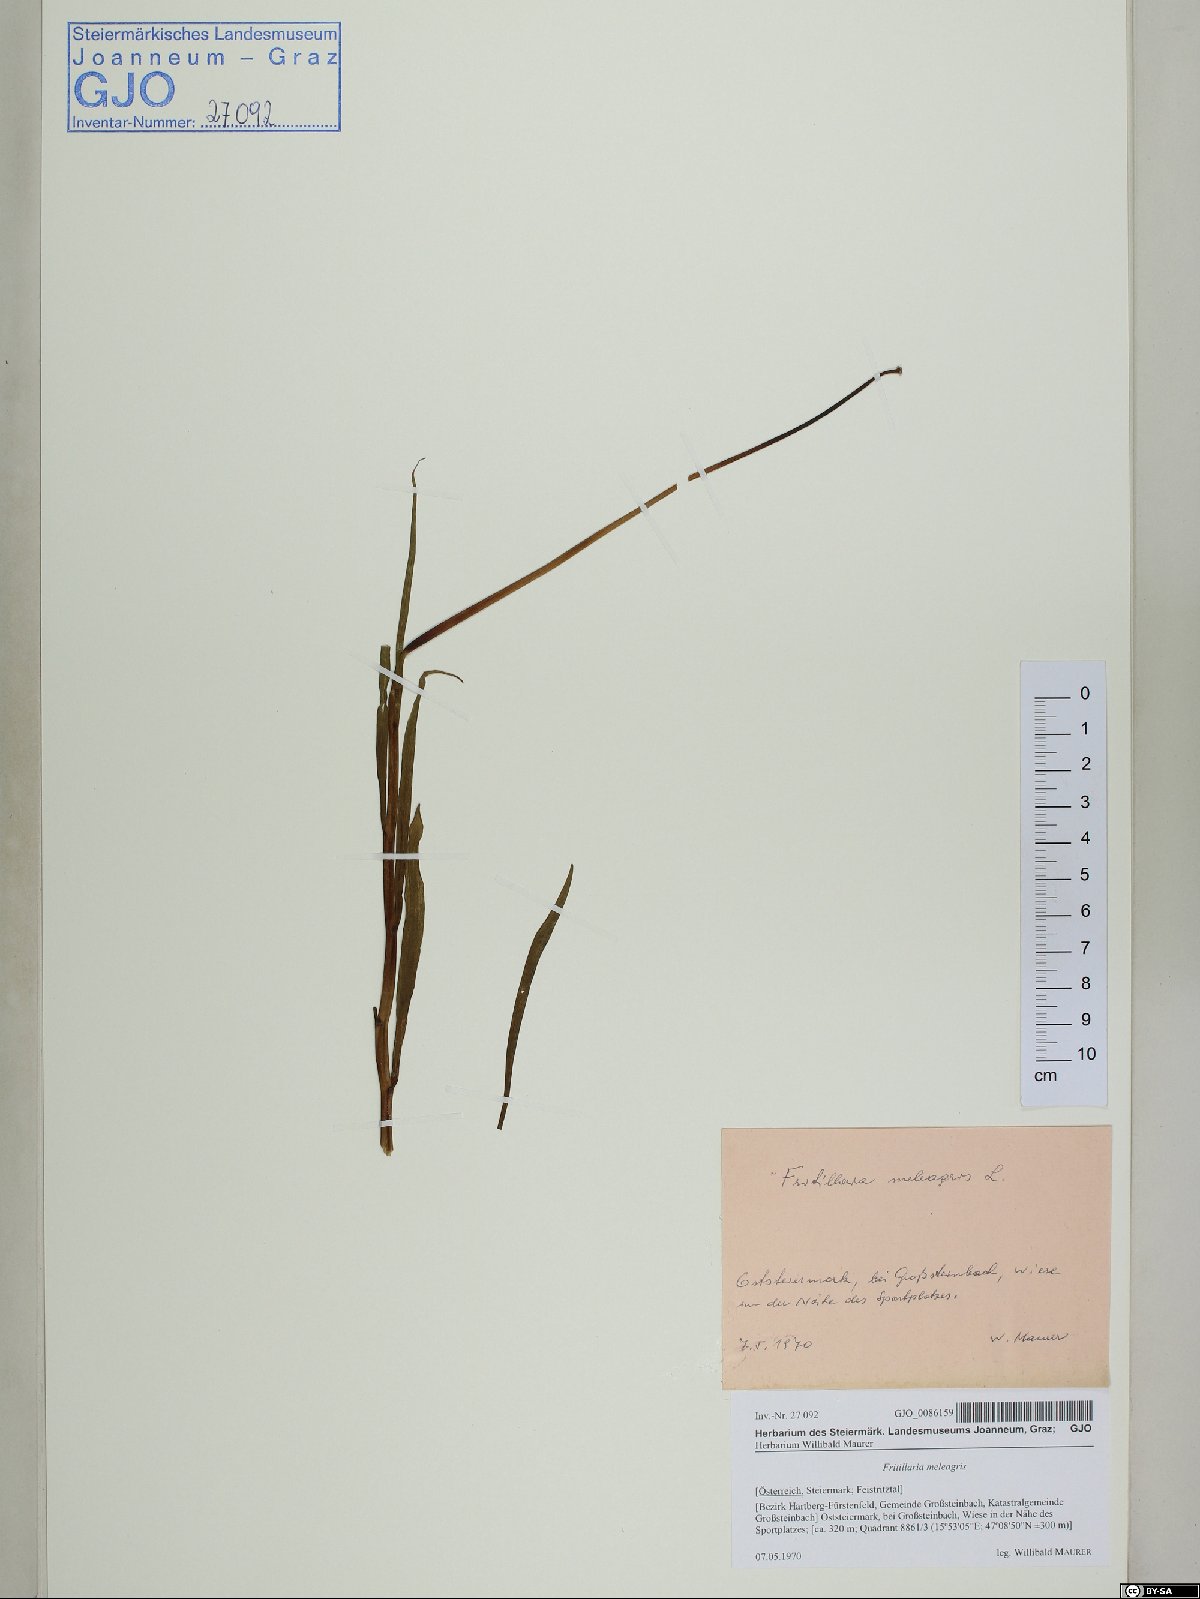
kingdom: Plantae
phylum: Tracheophyta
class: Liliopsida
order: Liliales
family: Liliaceae
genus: Fritillaria
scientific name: Fritillaria meleagris
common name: Fritillary
